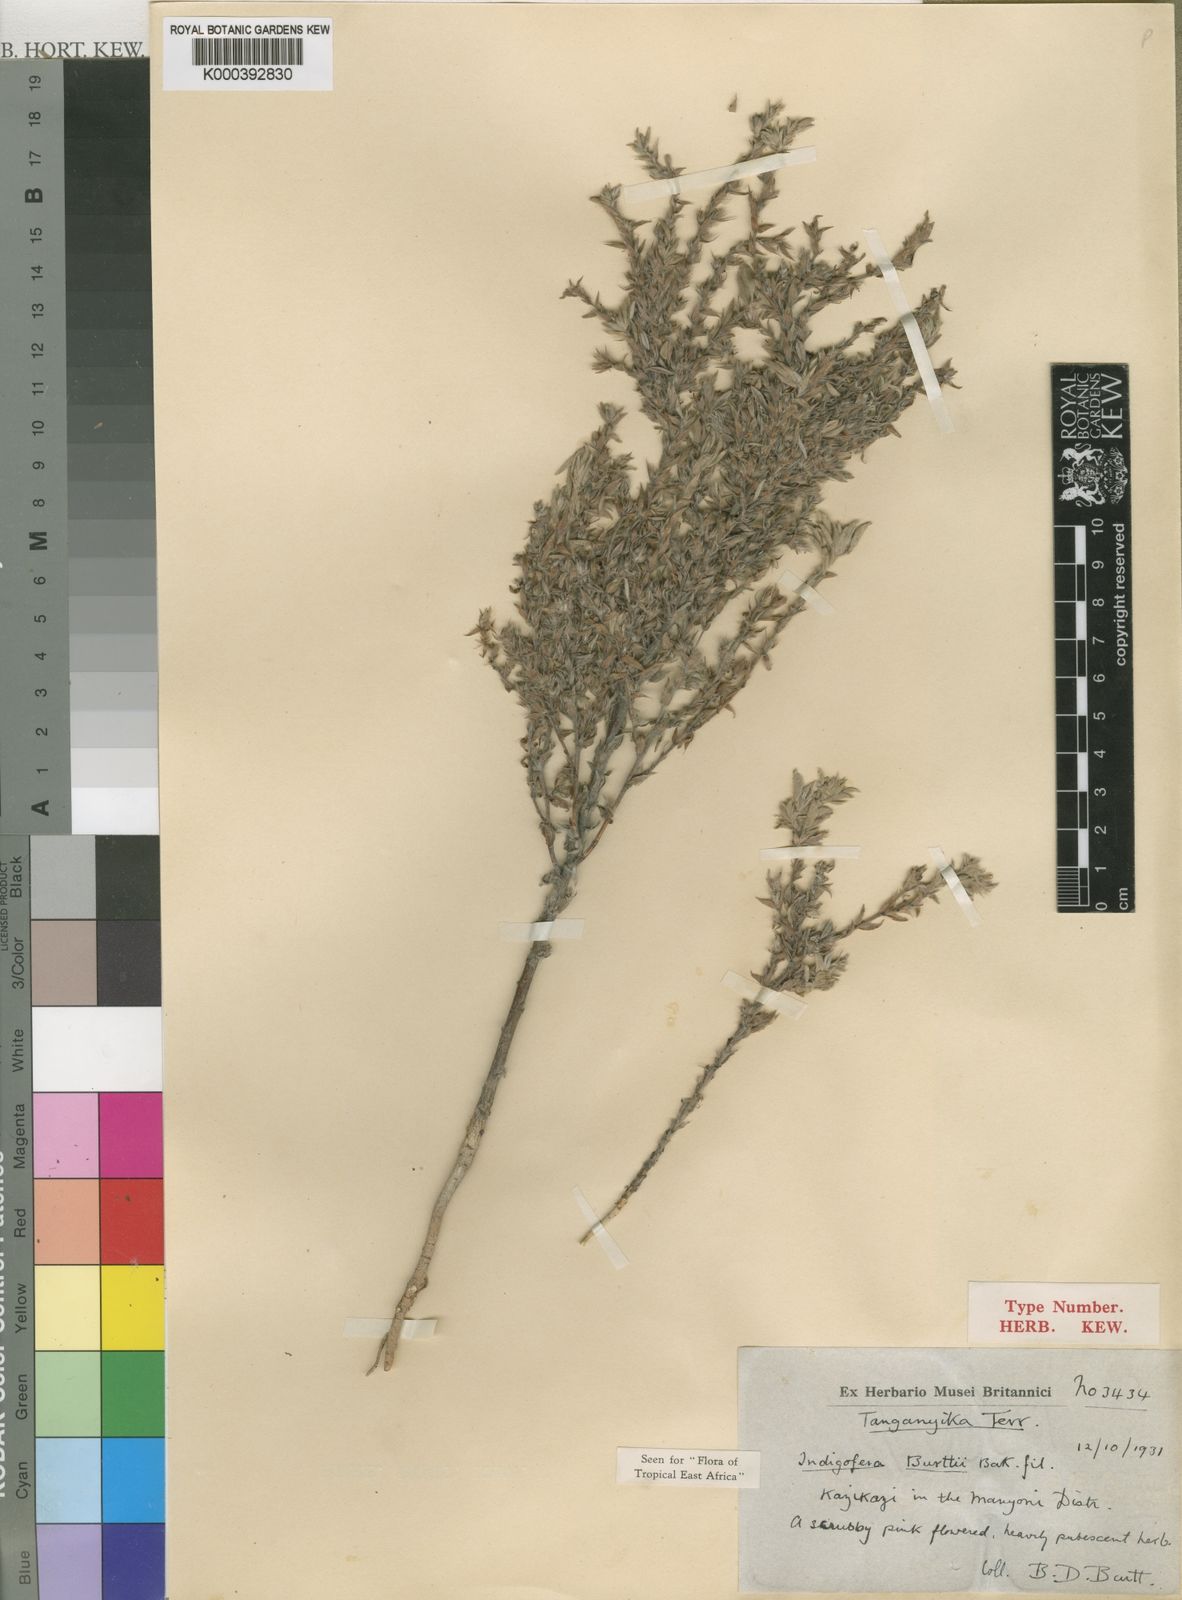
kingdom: Plantae
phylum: Tracheophyta
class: Magnoliopsida
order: Fabales
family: Fabaceae
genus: Indigofera
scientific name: Indigofera burttii
